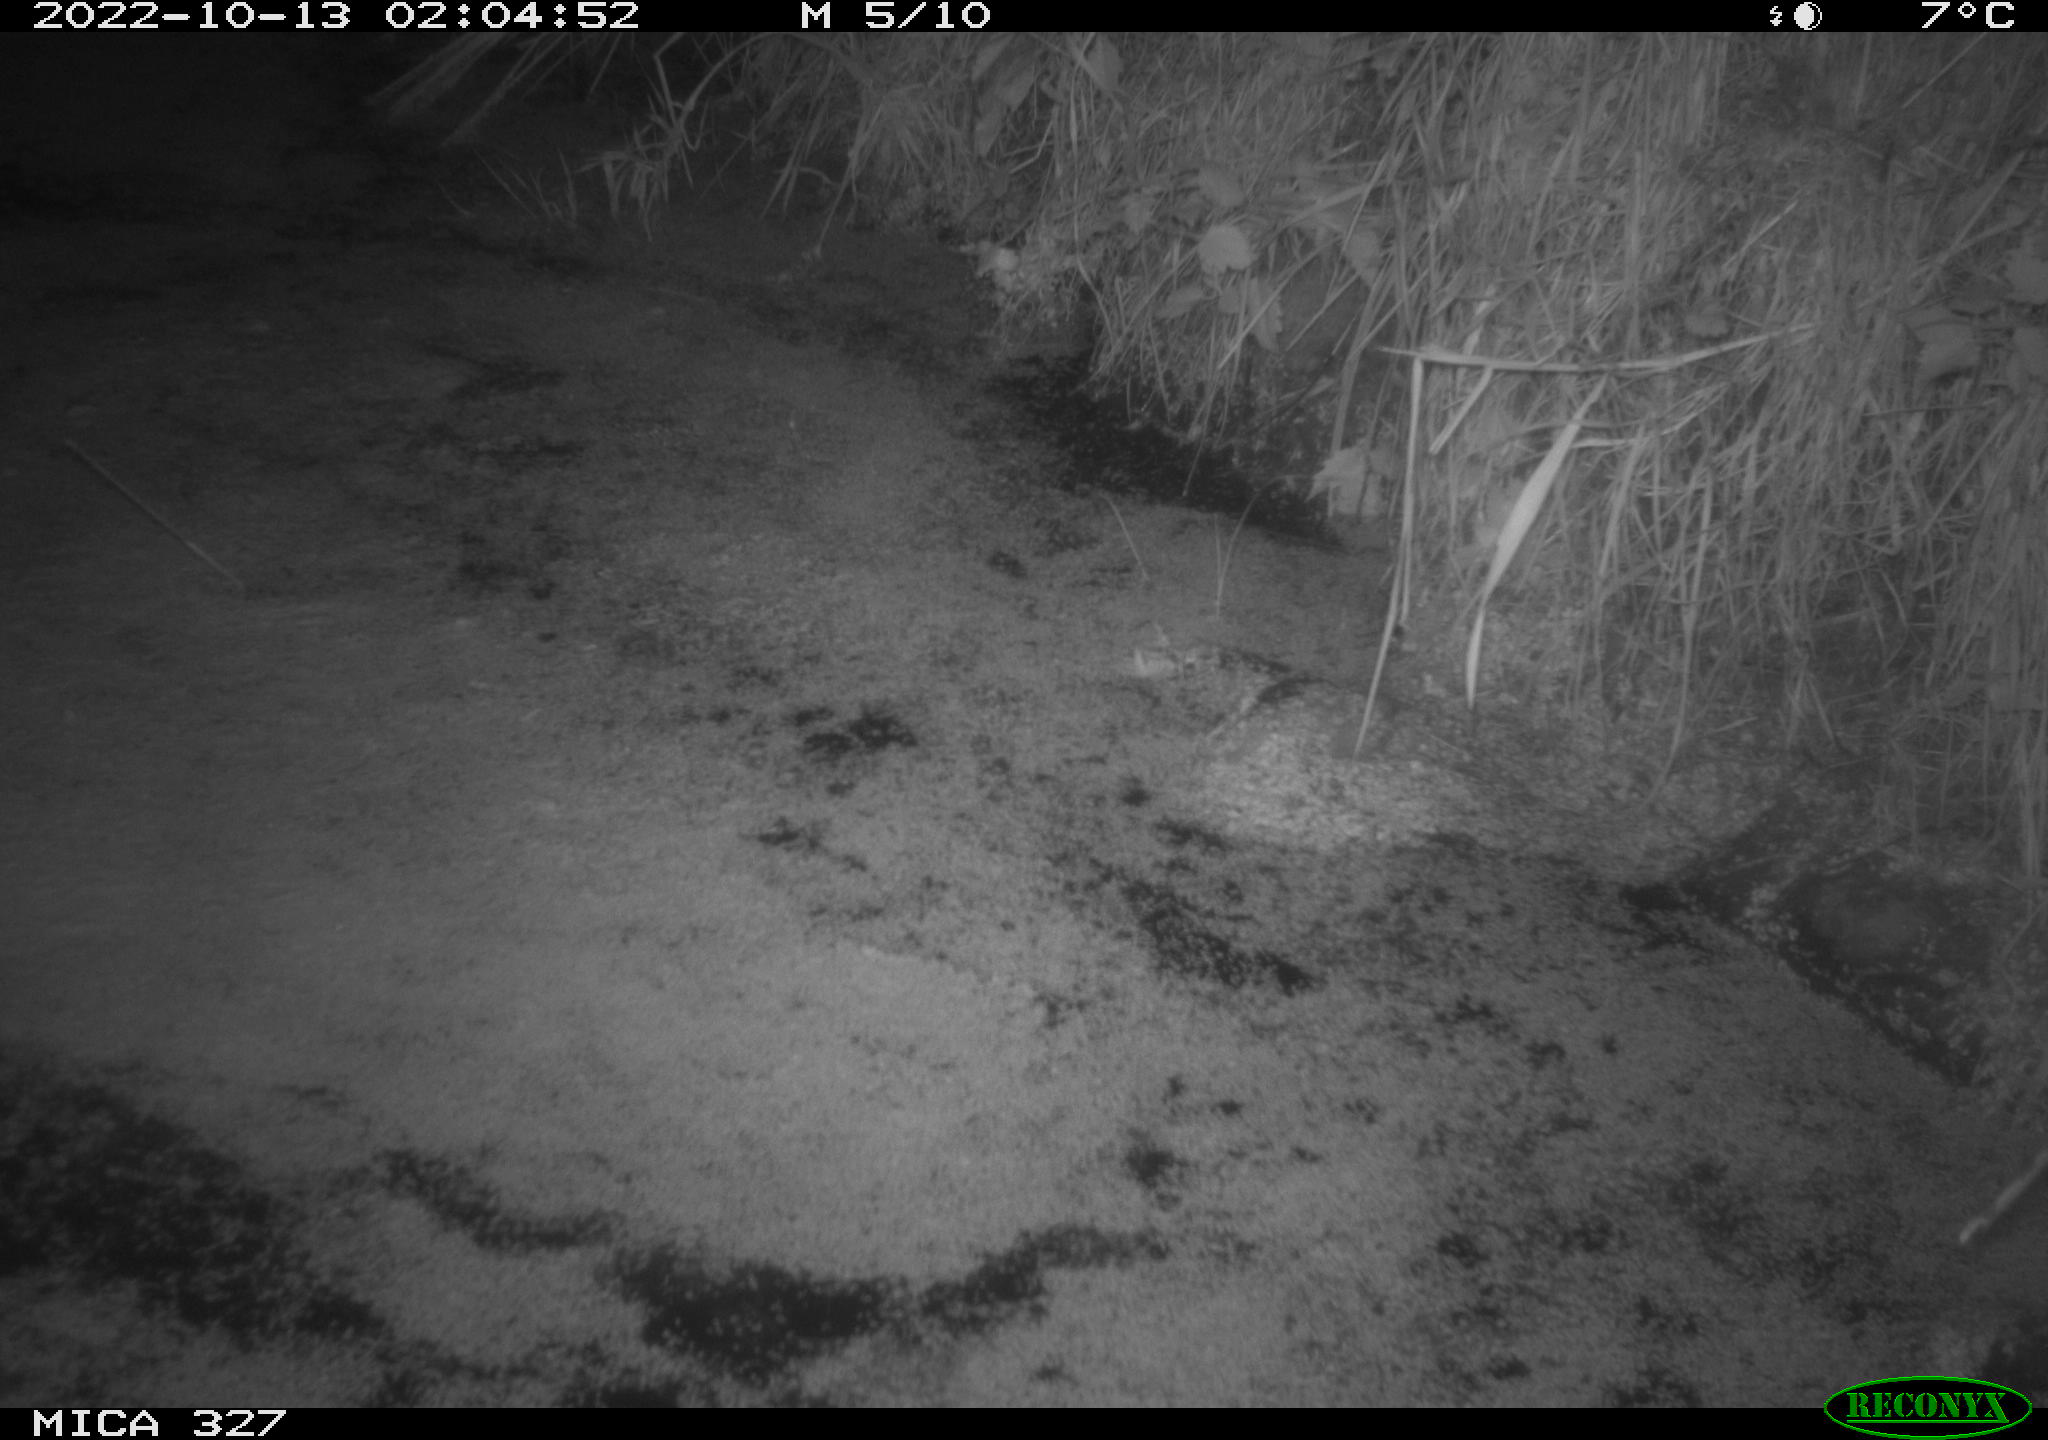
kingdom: Animalia
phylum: Chordata
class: Mammalia
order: Rodentia
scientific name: Rodentia
